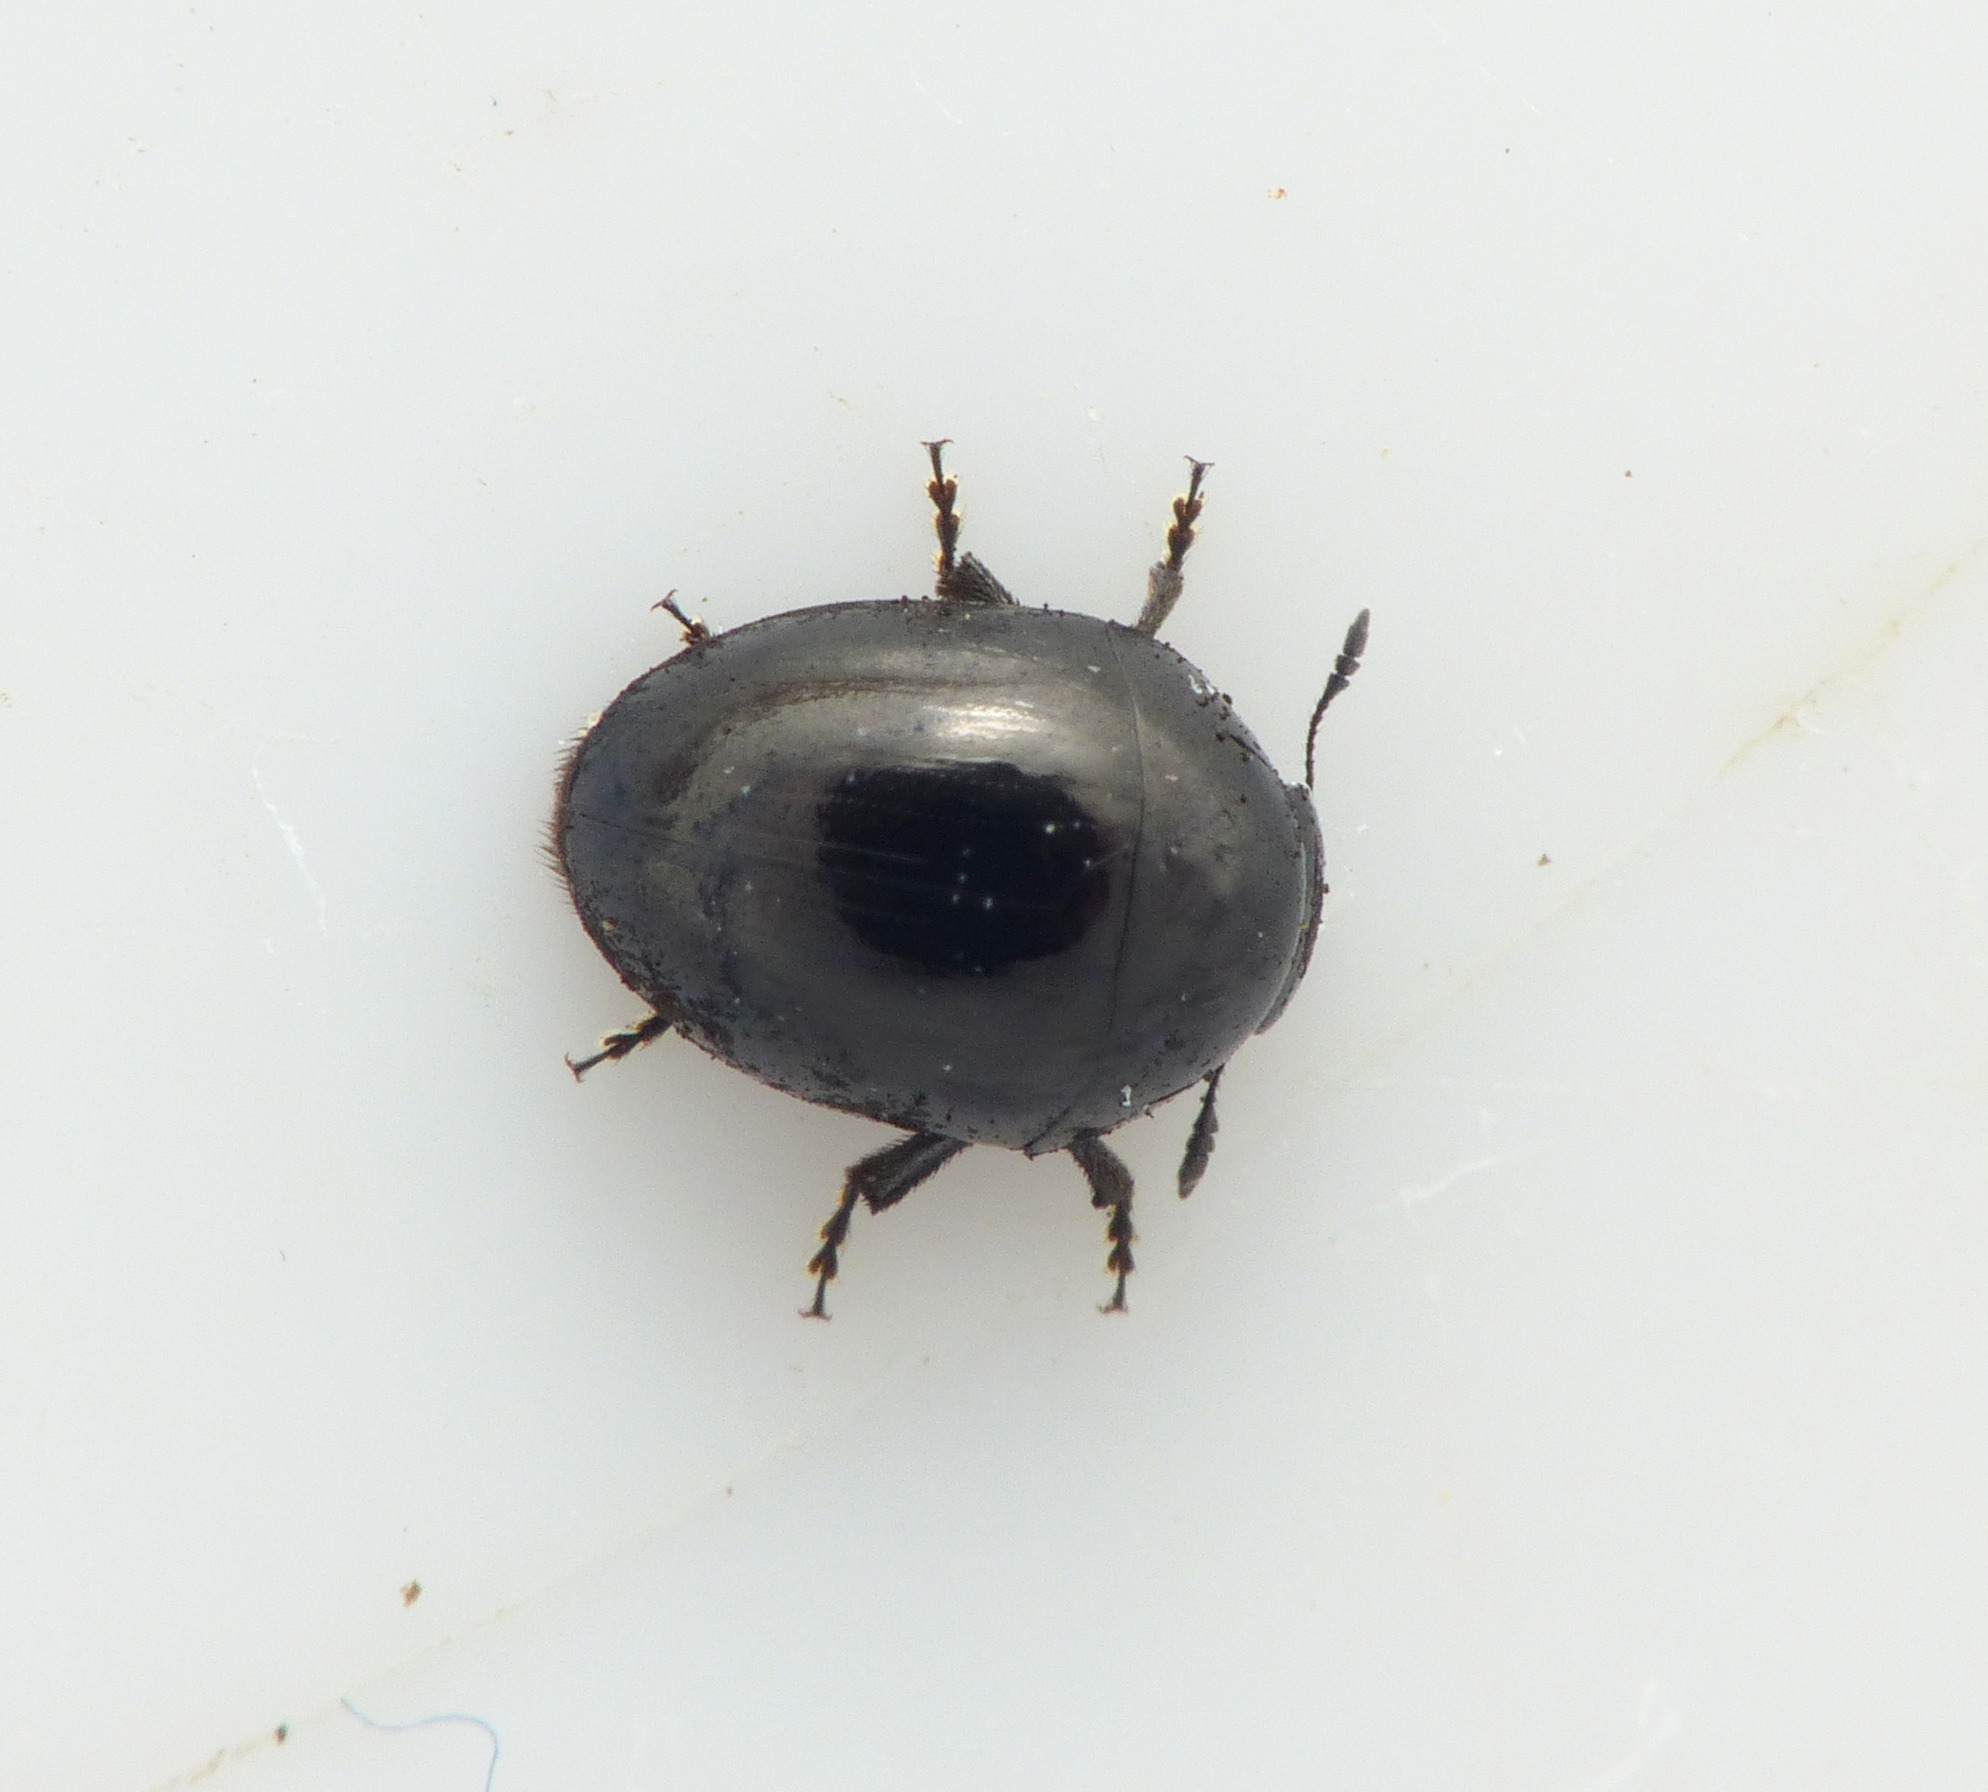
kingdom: Animalia
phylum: Arthropoda
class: Insecta
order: Coleoptera
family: Phalacridae
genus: Phalacrus
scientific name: Phalacrus grossus
